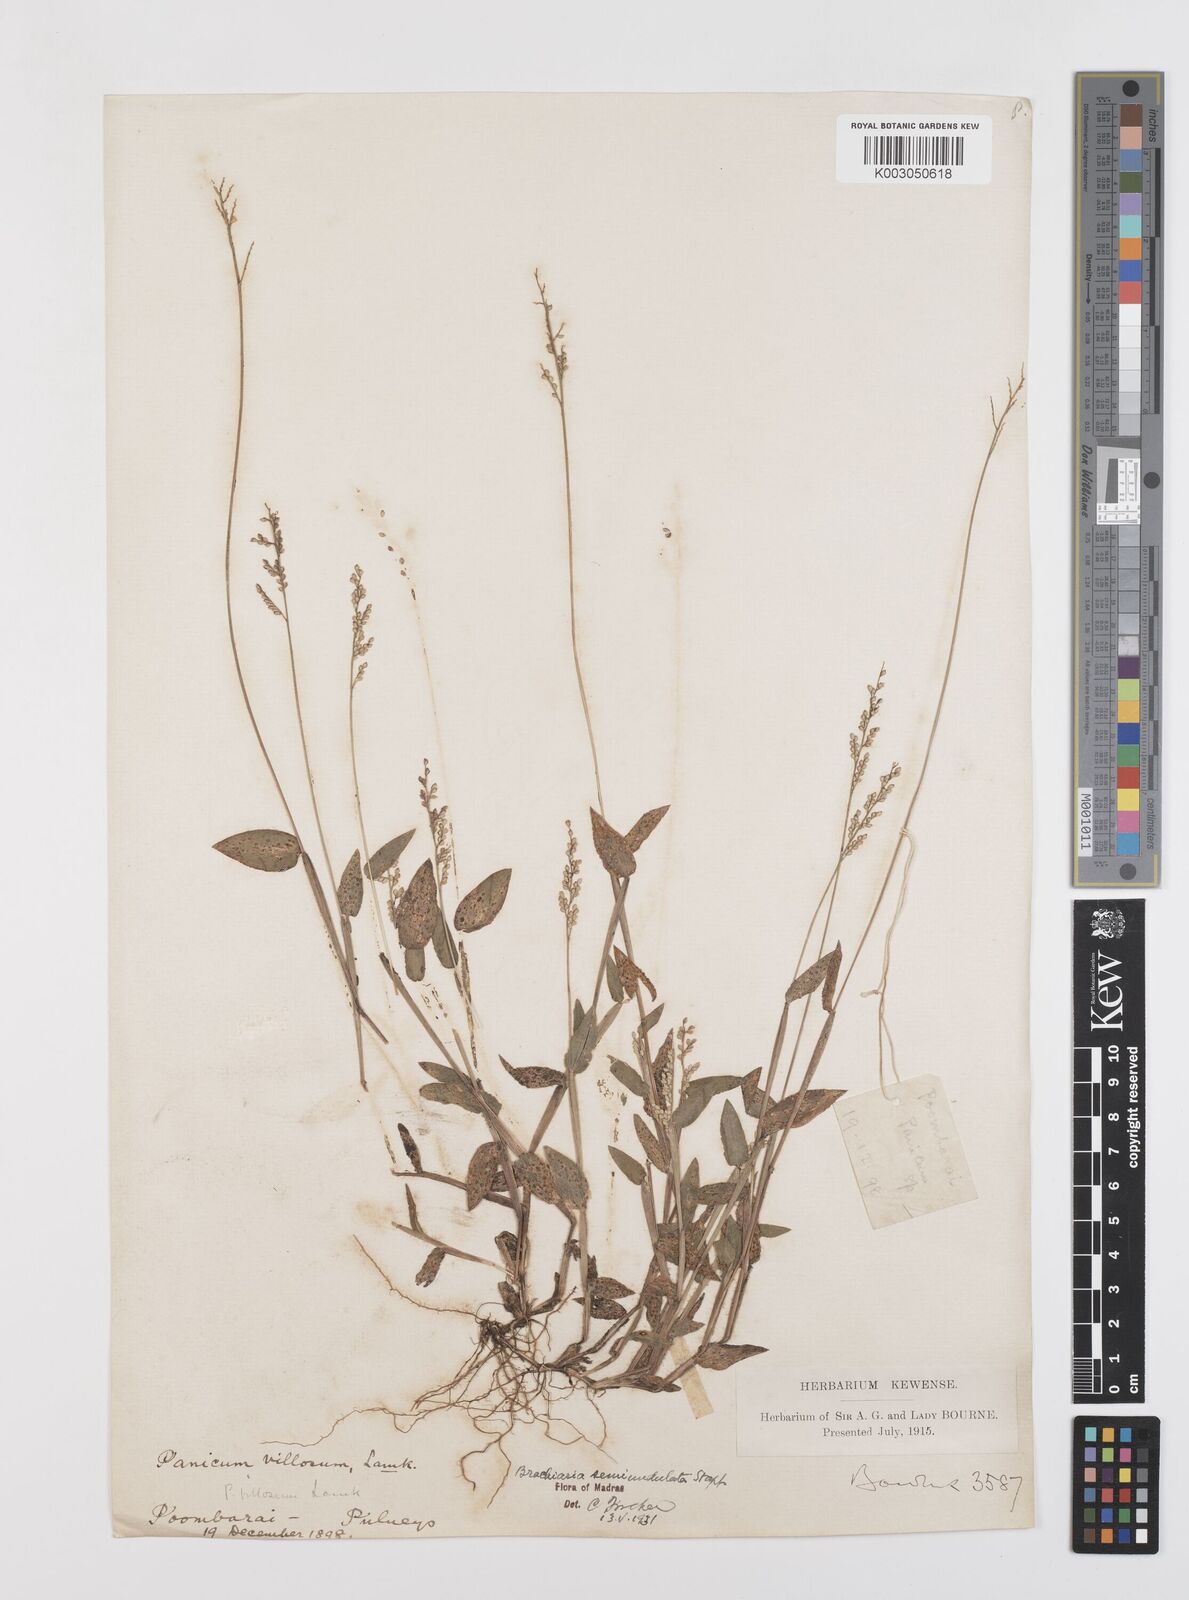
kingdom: Plantae
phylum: Tracheophyta
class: Liliopsida
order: Poales
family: Poaceae
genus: Urochloa
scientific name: Urochloa semiundulata
